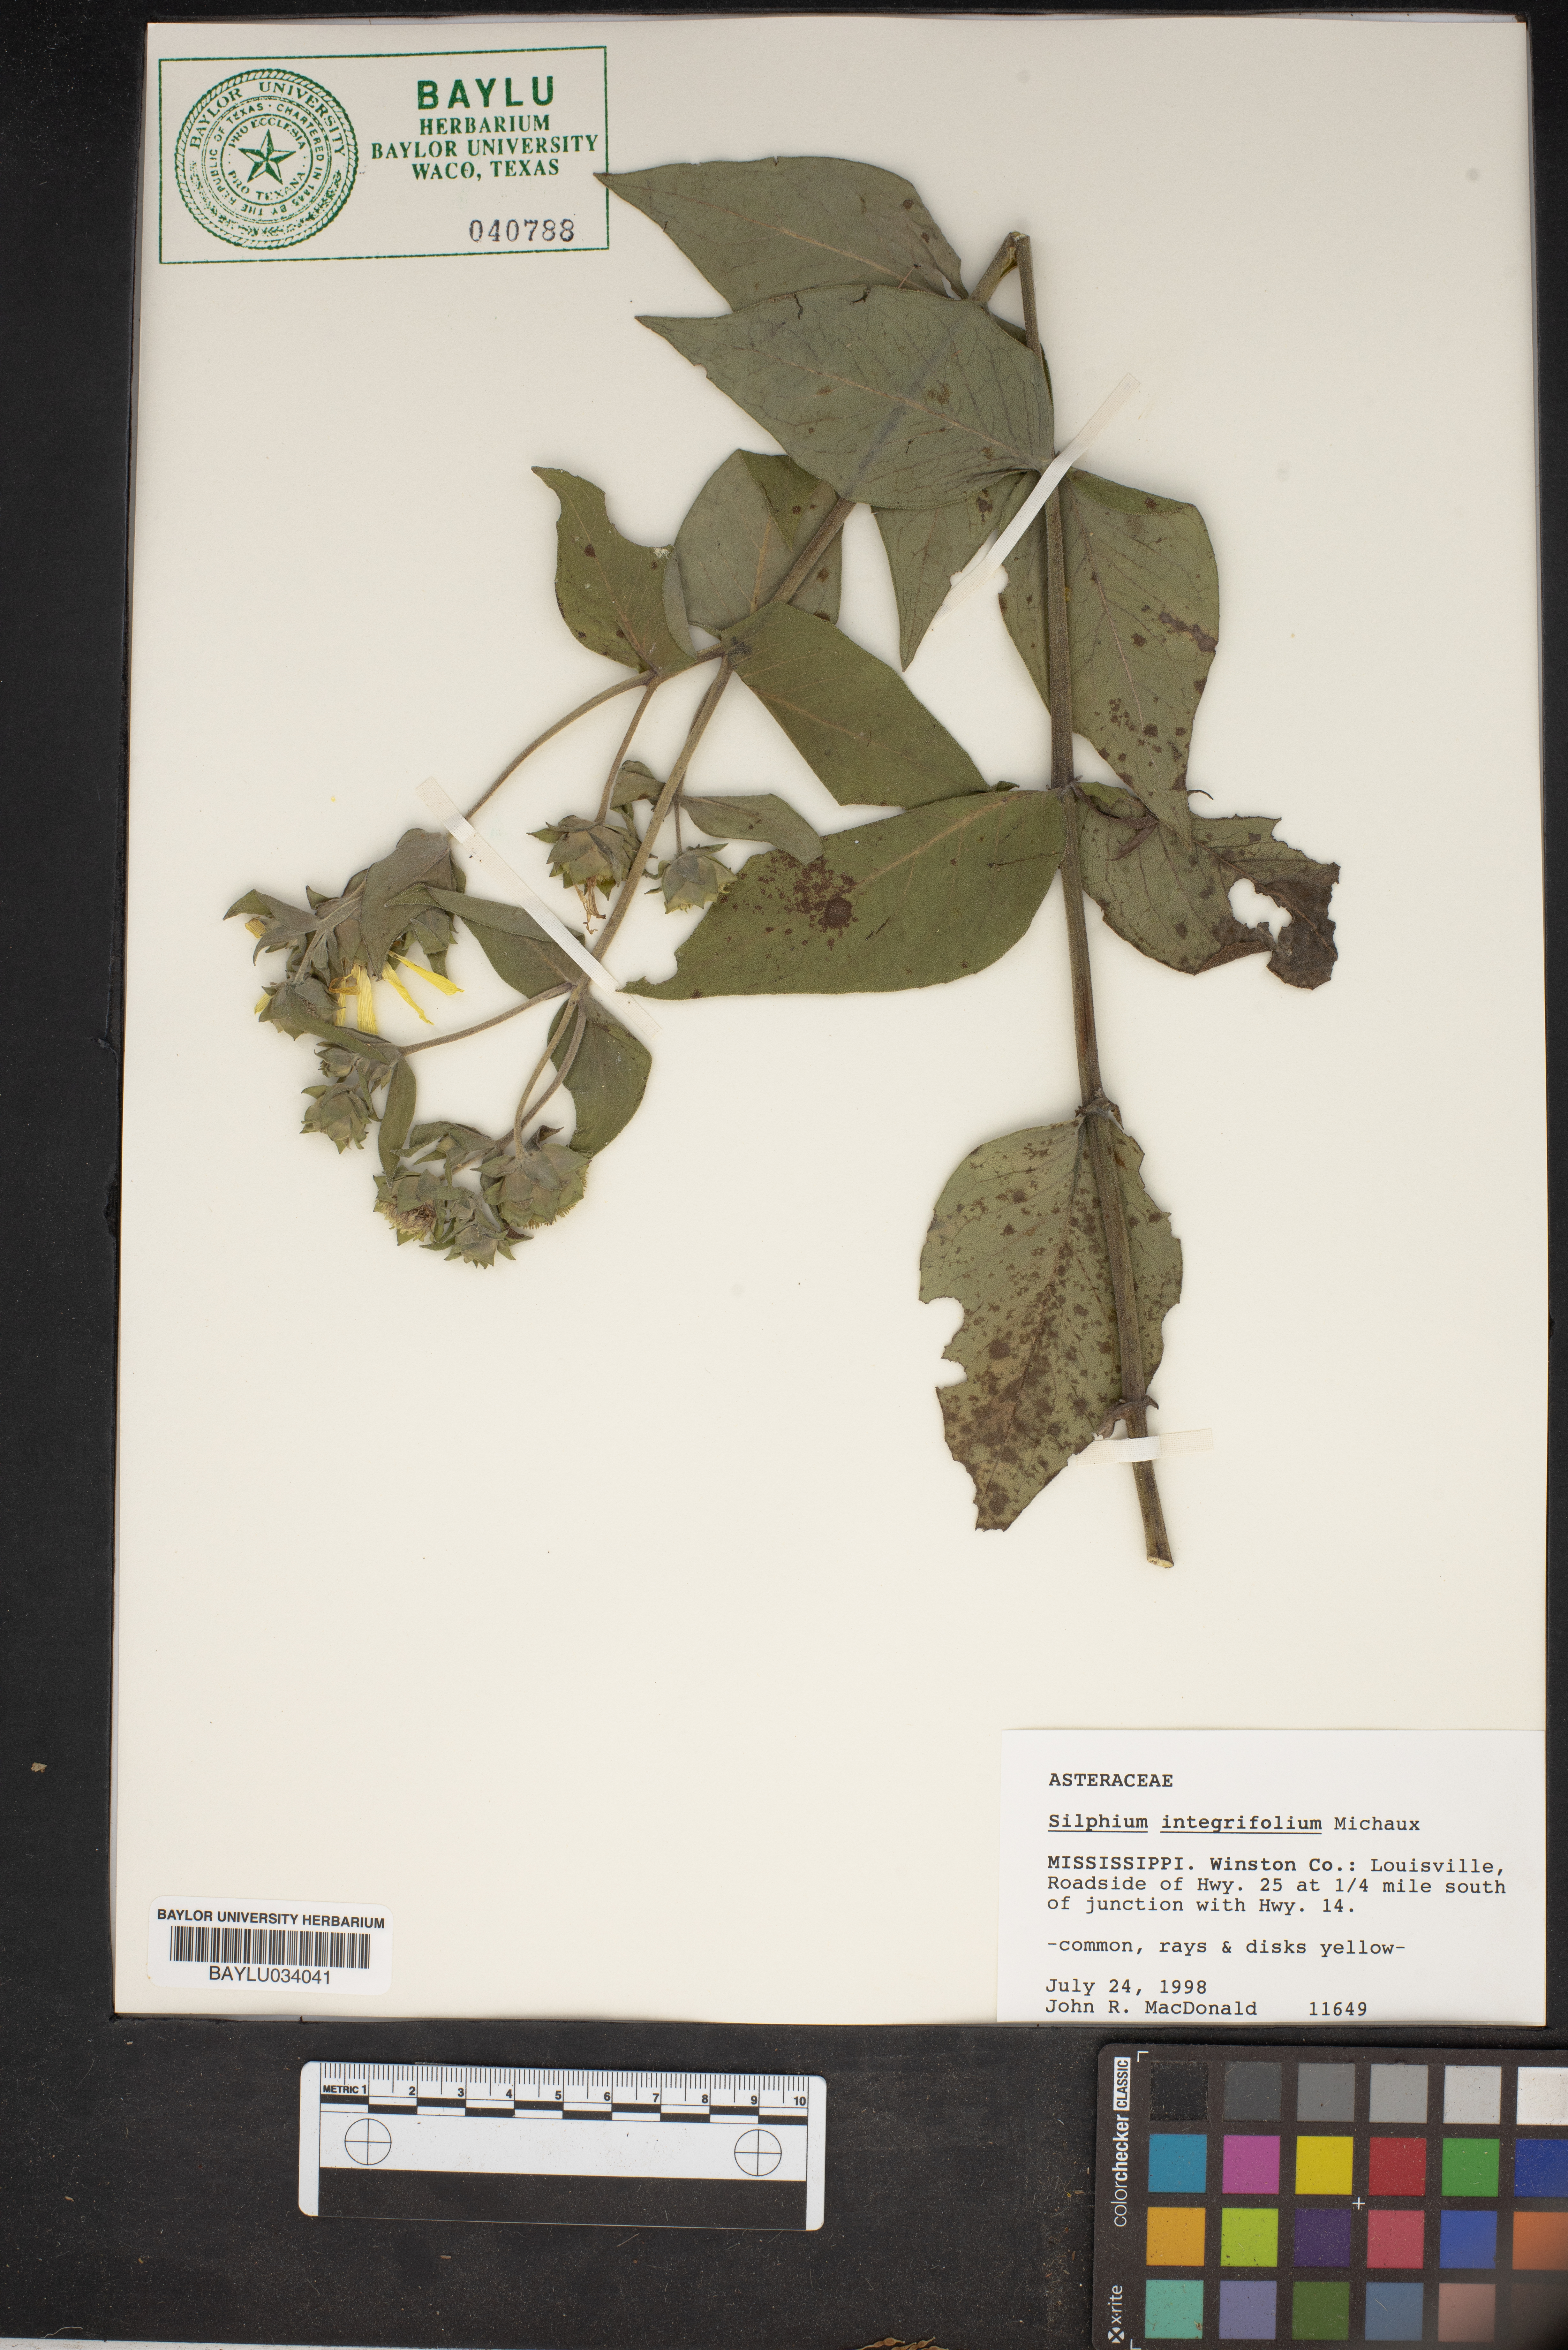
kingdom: Plantae
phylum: Tracheophyta
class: Magnoliopsida
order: Asterales
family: Asteraceae
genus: Silphium
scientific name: Silphium integrifolium
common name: Whole-leaf rosinweed
